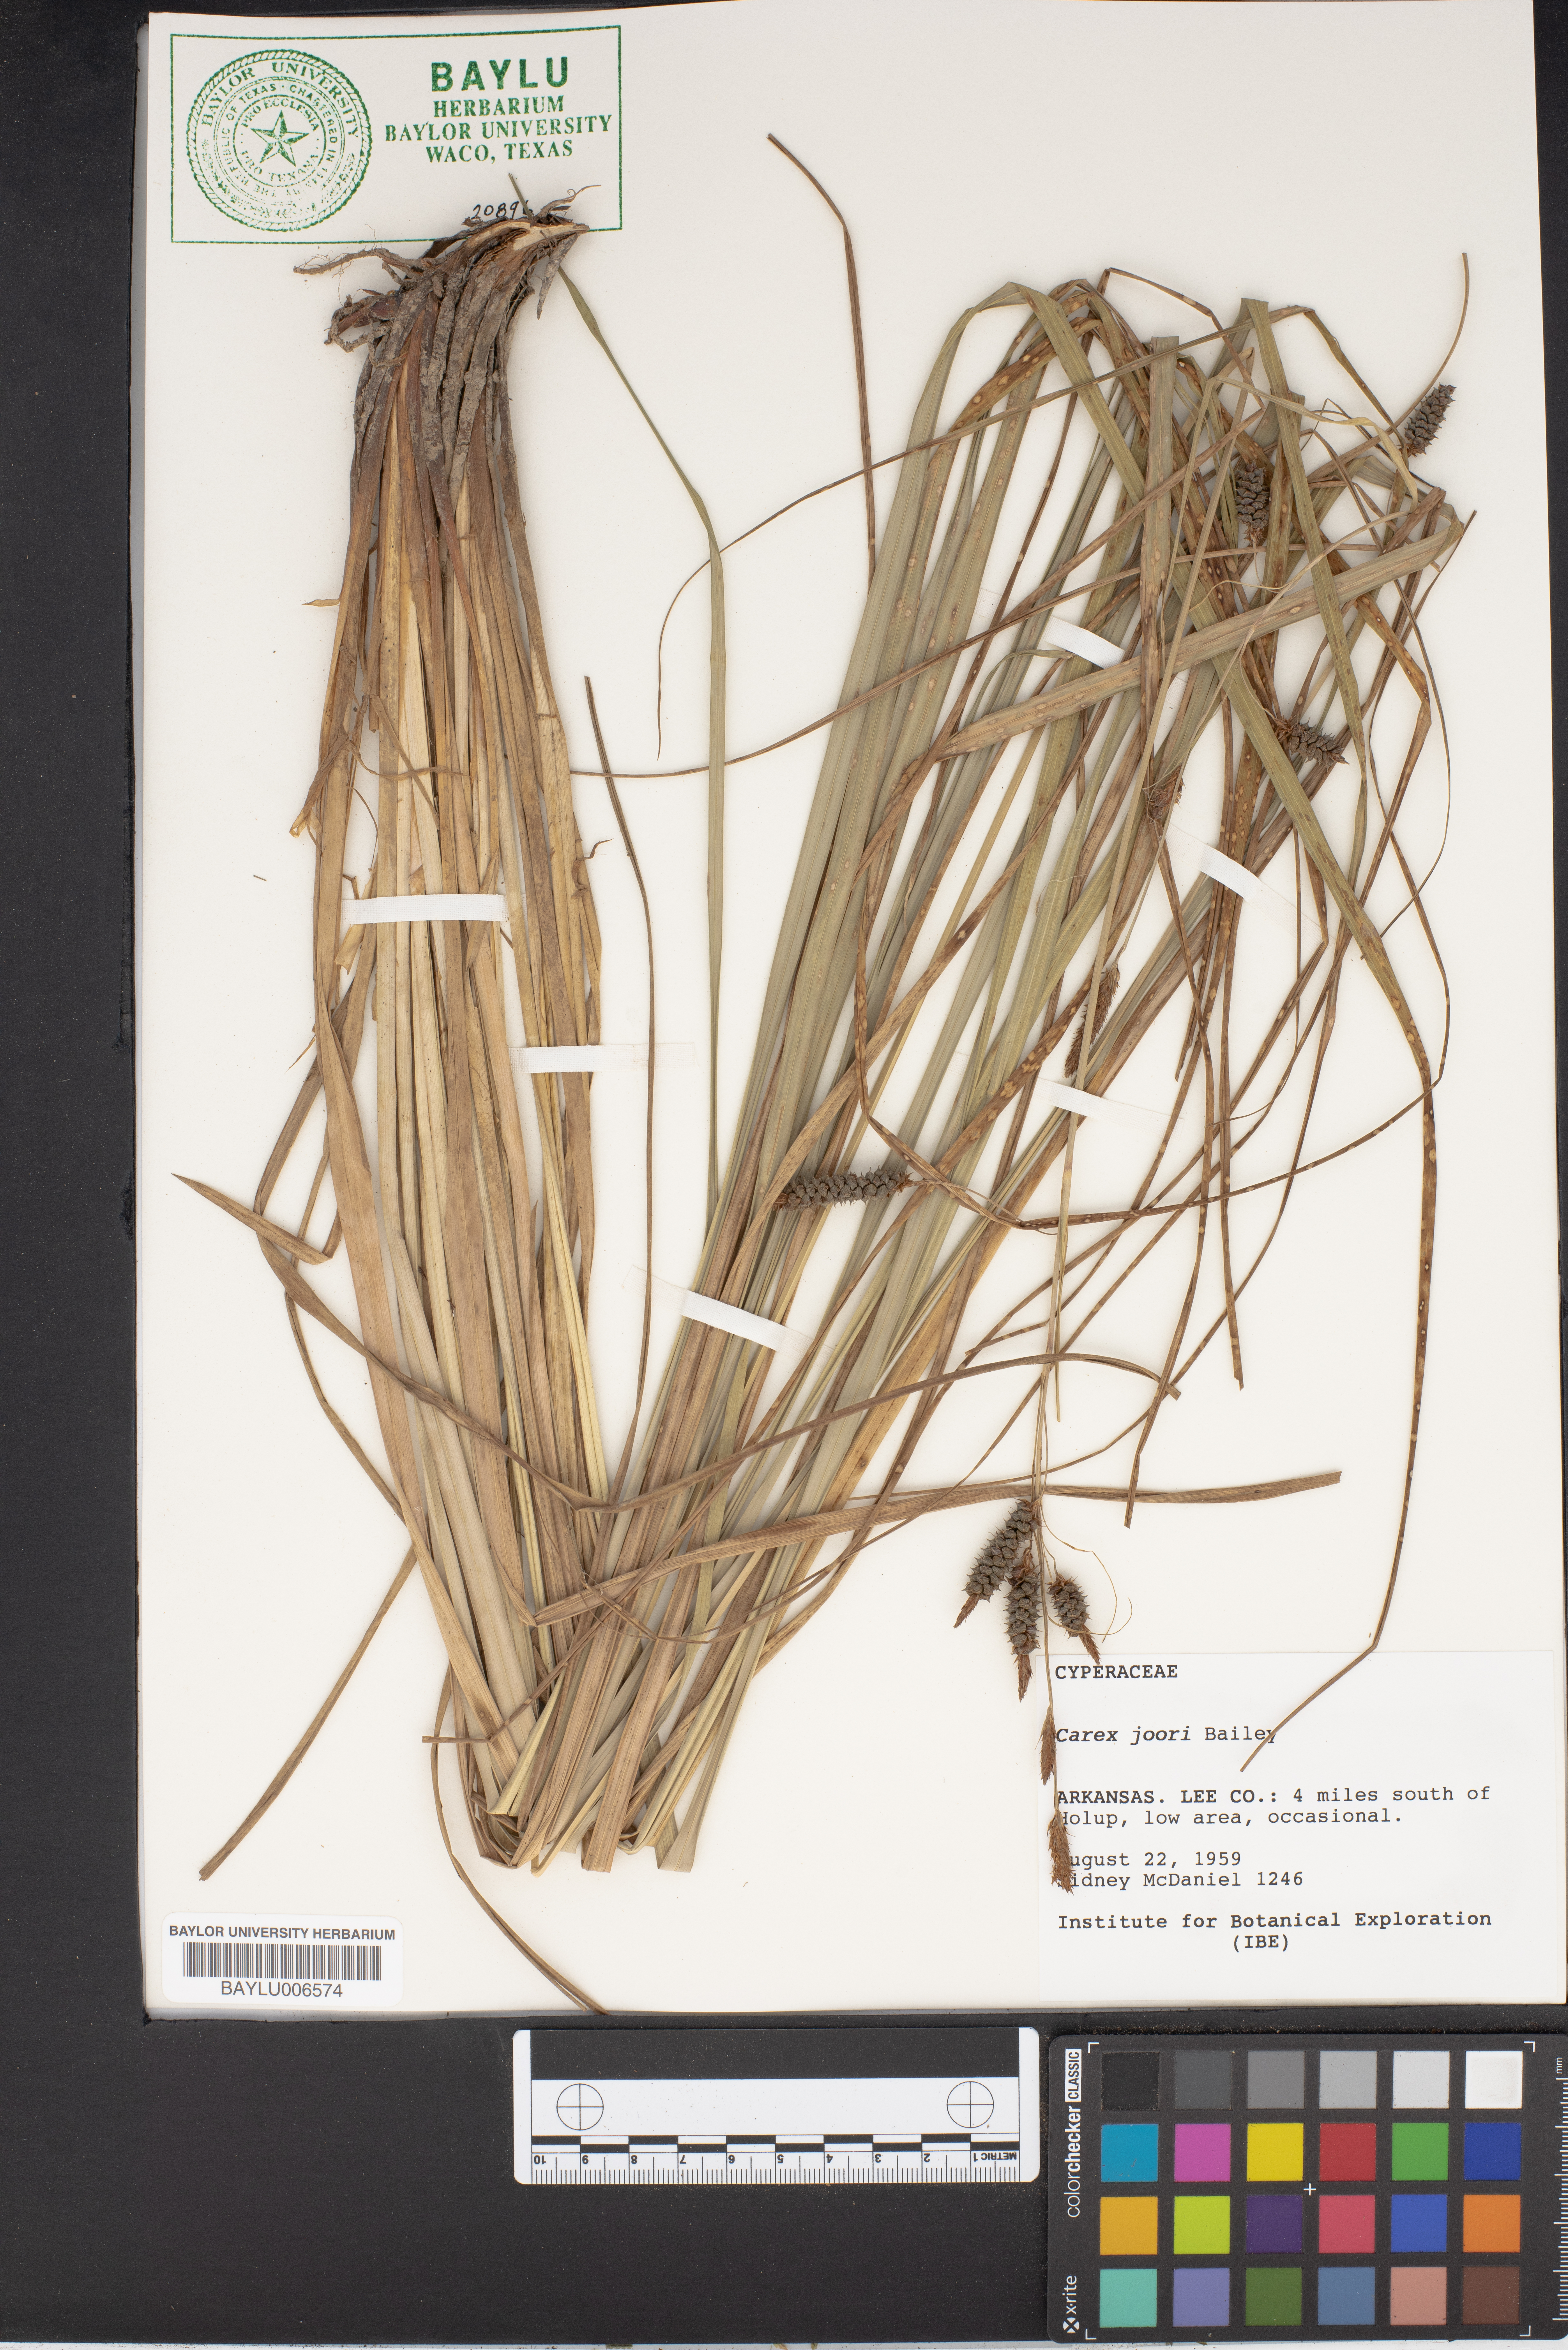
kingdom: Plantae
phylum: Tracheophyta
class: Liliopsida
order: Poales
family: Cyperaceae
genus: Carex
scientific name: Carex joorii
